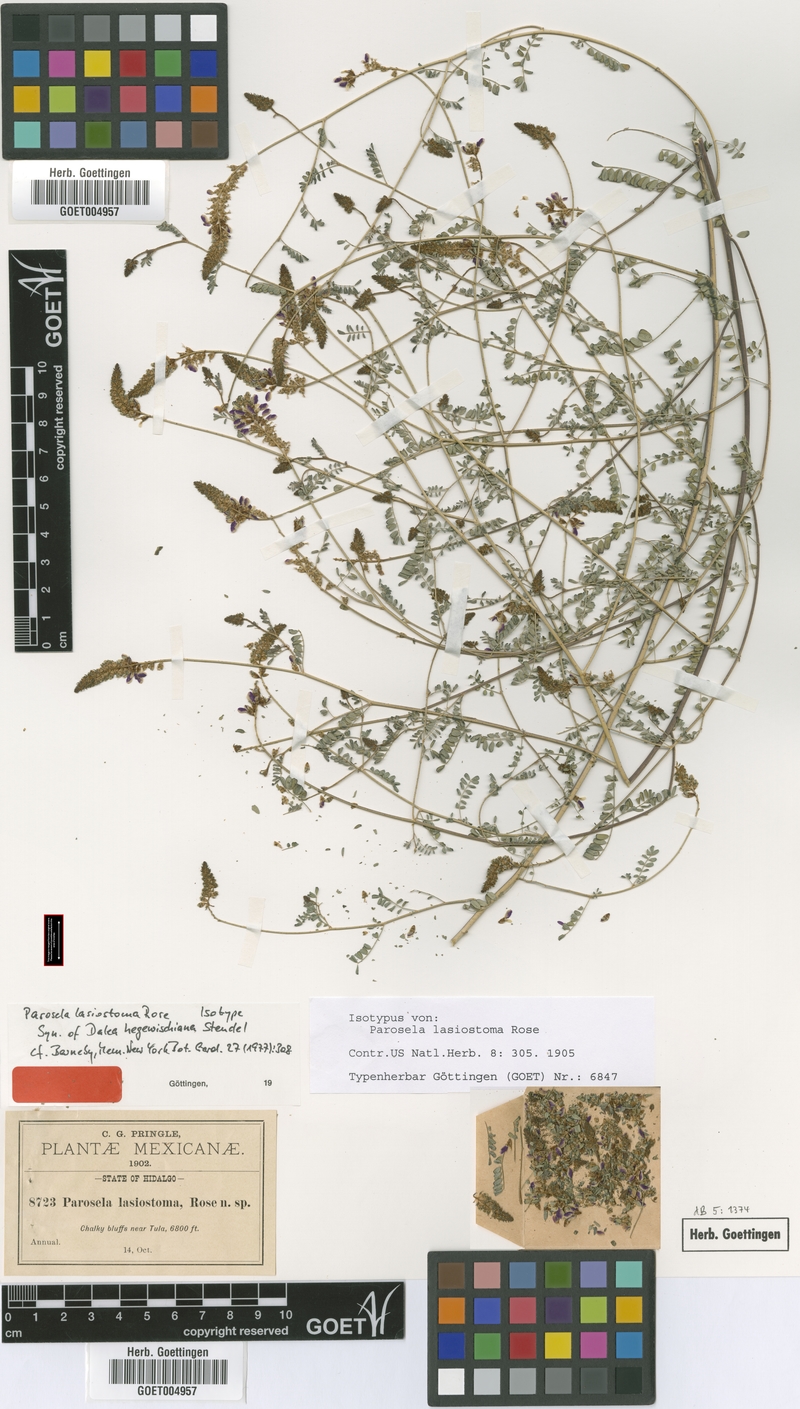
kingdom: Plantae
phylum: Tracheophyta
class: Magnoliopsida
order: Fabales
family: Fabaceae
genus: Dalea
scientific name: Dalea hegewischiana
